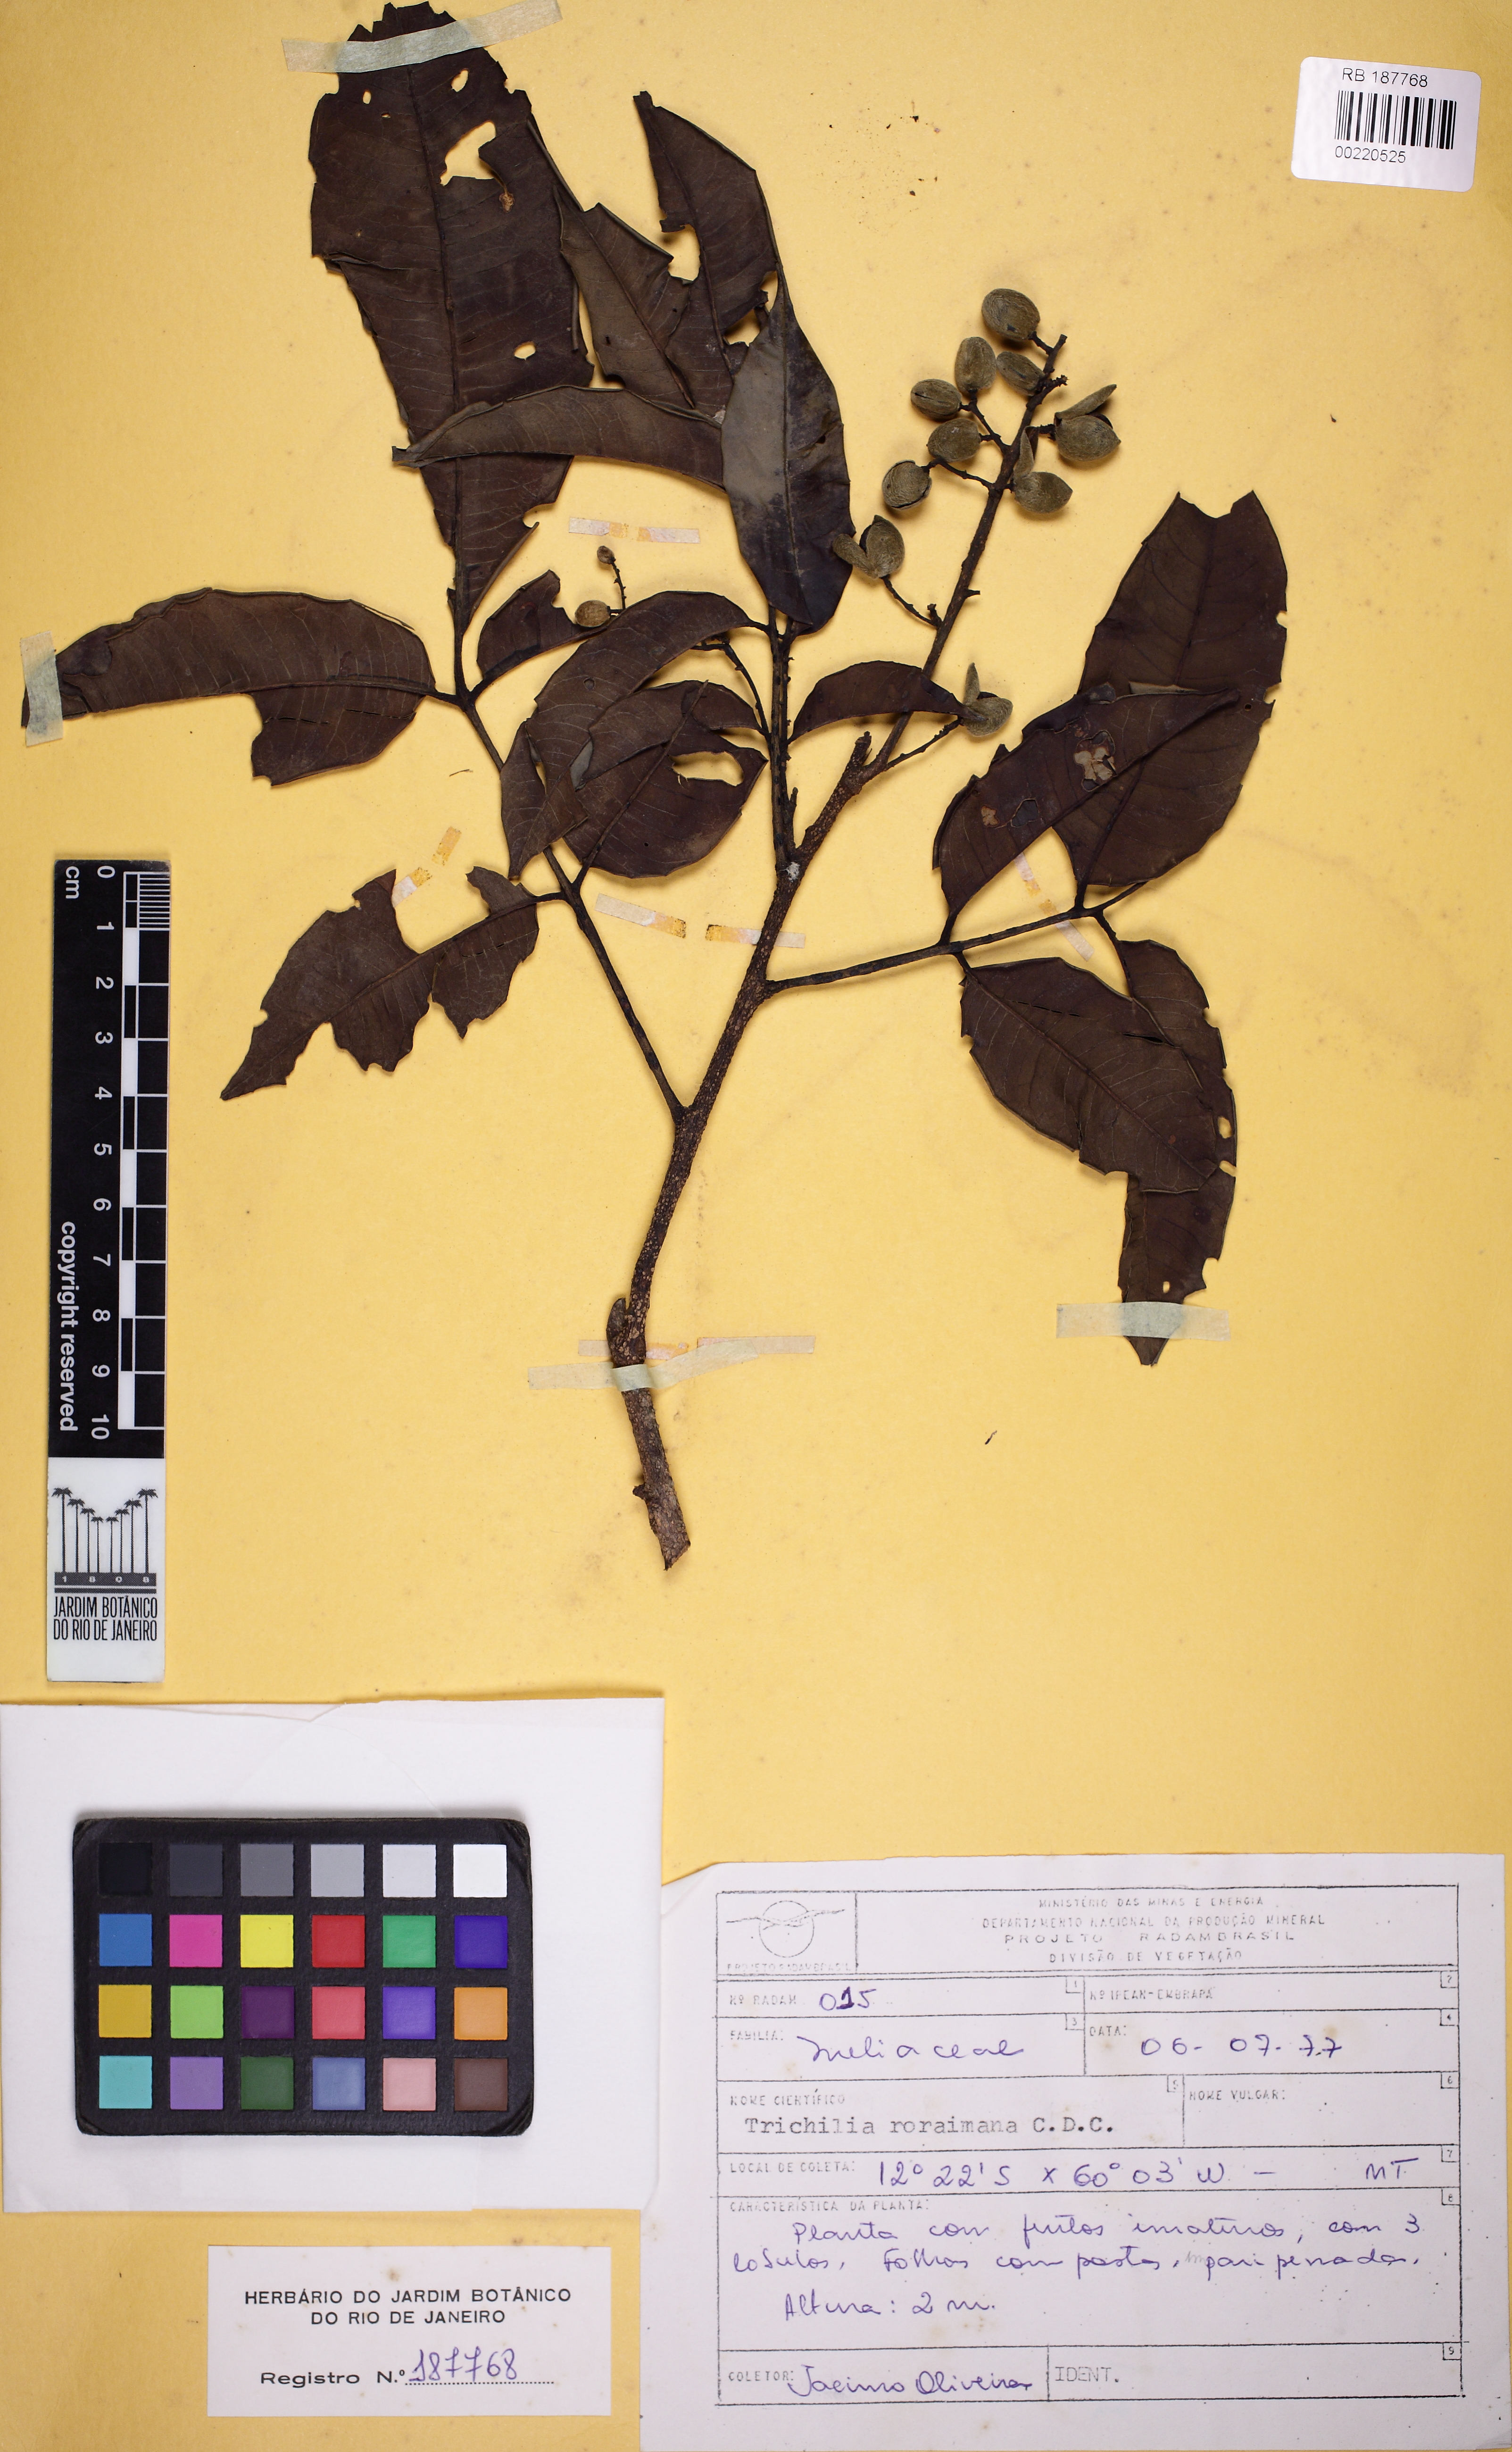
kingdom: Plantae
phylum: Tracheophyta
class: Magnoliopsida
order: Sapindales
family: Meliaceae
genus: Trichilia
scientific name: Trichilia micrantha
